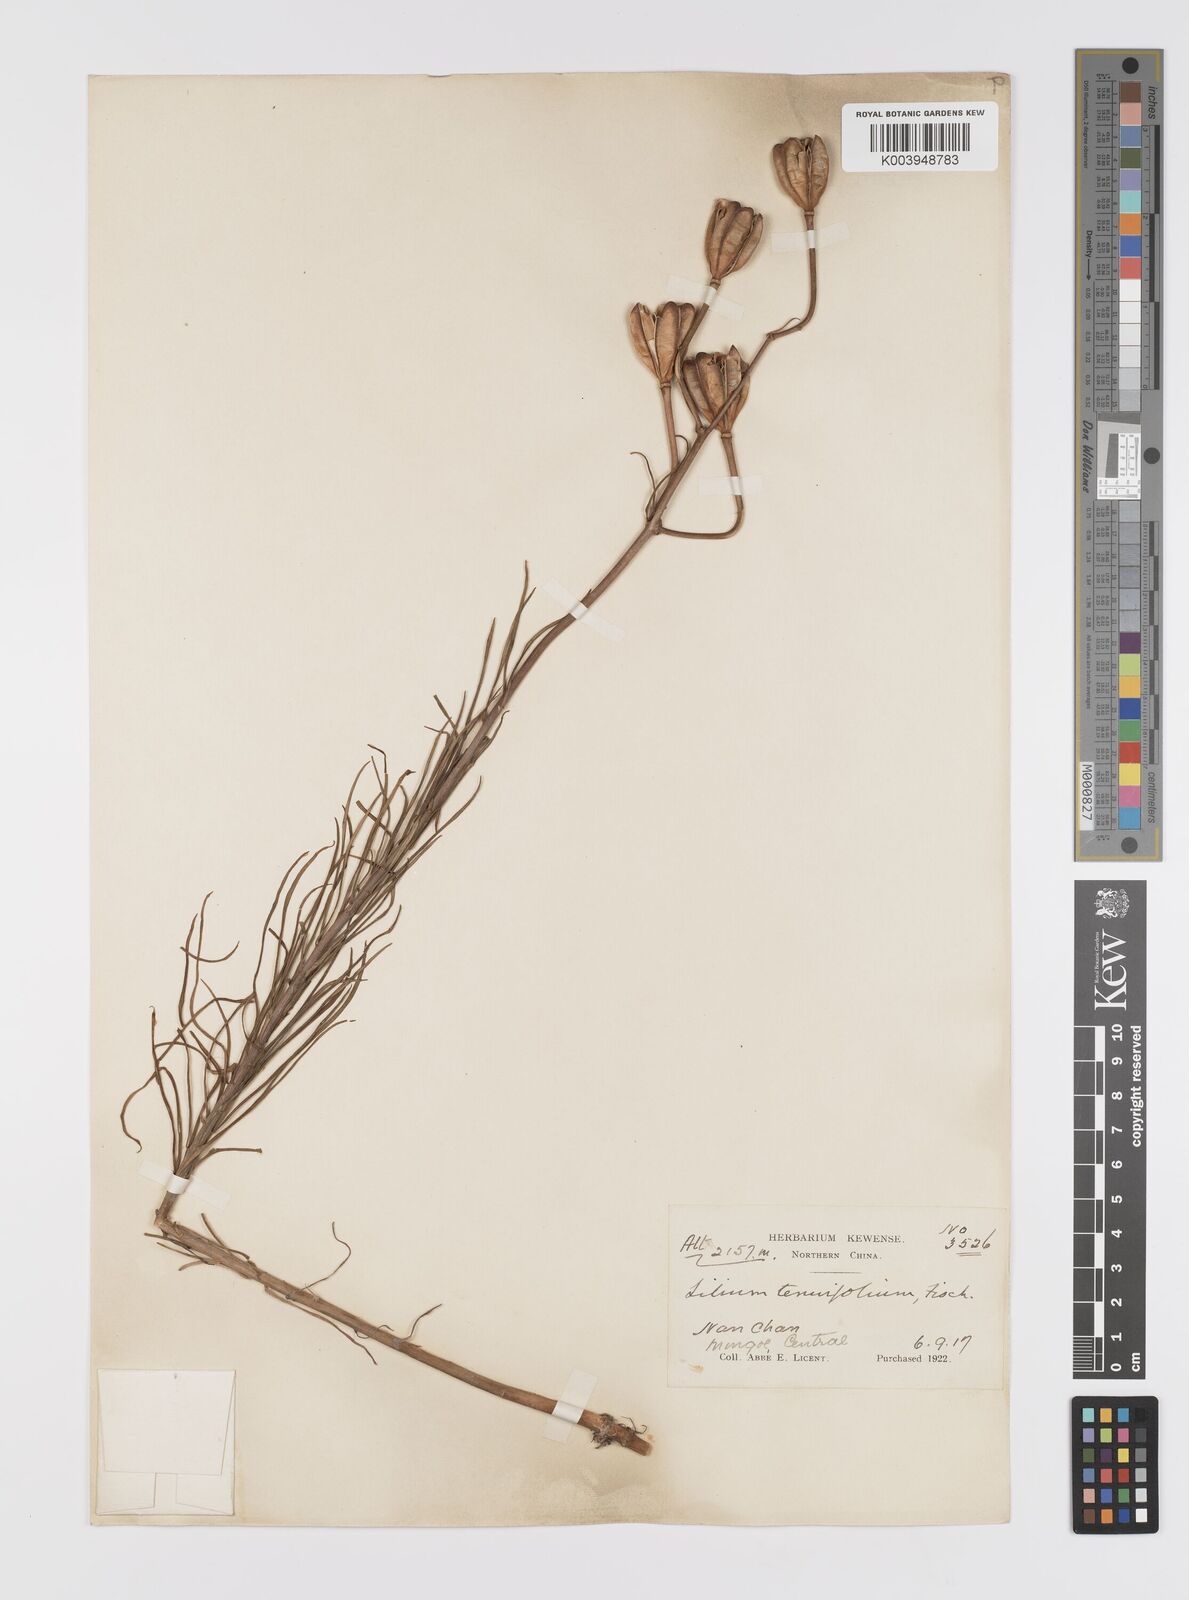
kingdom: Plantae
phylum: Tracheophyta
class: Liliopsida
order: Liliales
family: Liliaceae
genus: Lilium
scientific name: Lilium pumilum
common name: Coral lily
